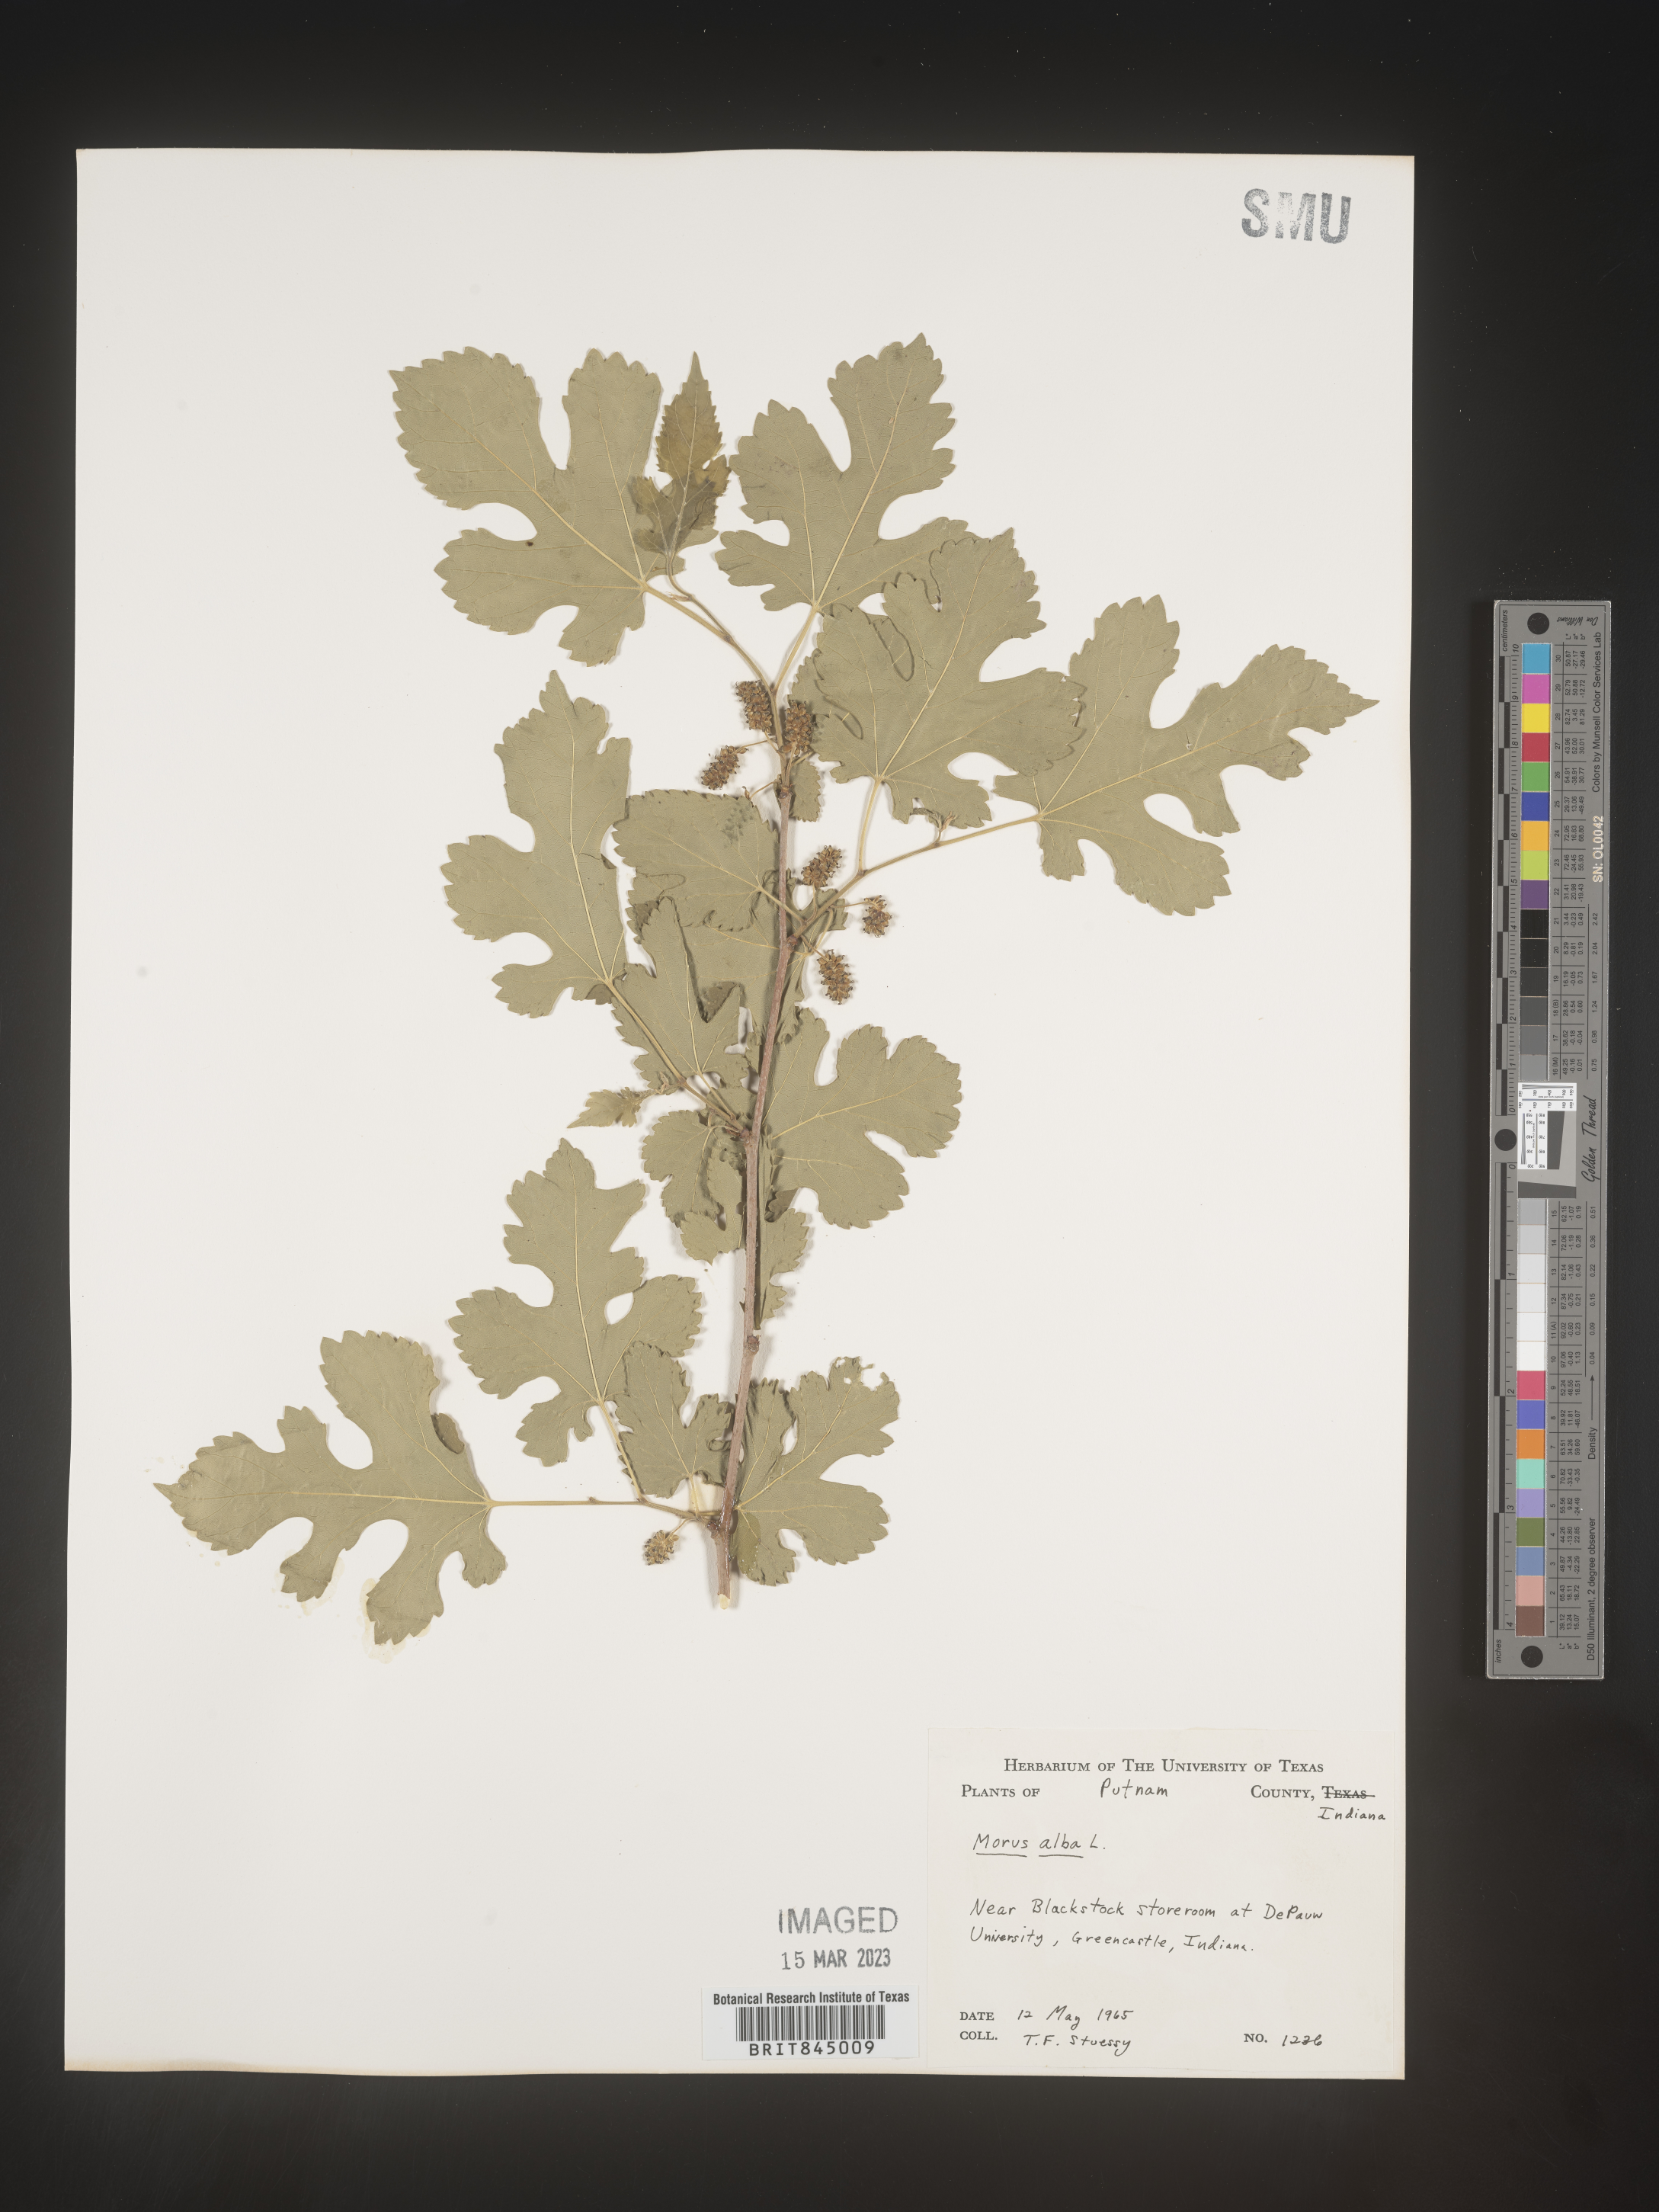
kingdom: Plantae
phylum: Tracheophyta
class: Magnoliopsida
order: Rosales
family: Moraceae
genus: Morus
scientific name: Morus alba
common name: White mulberry
